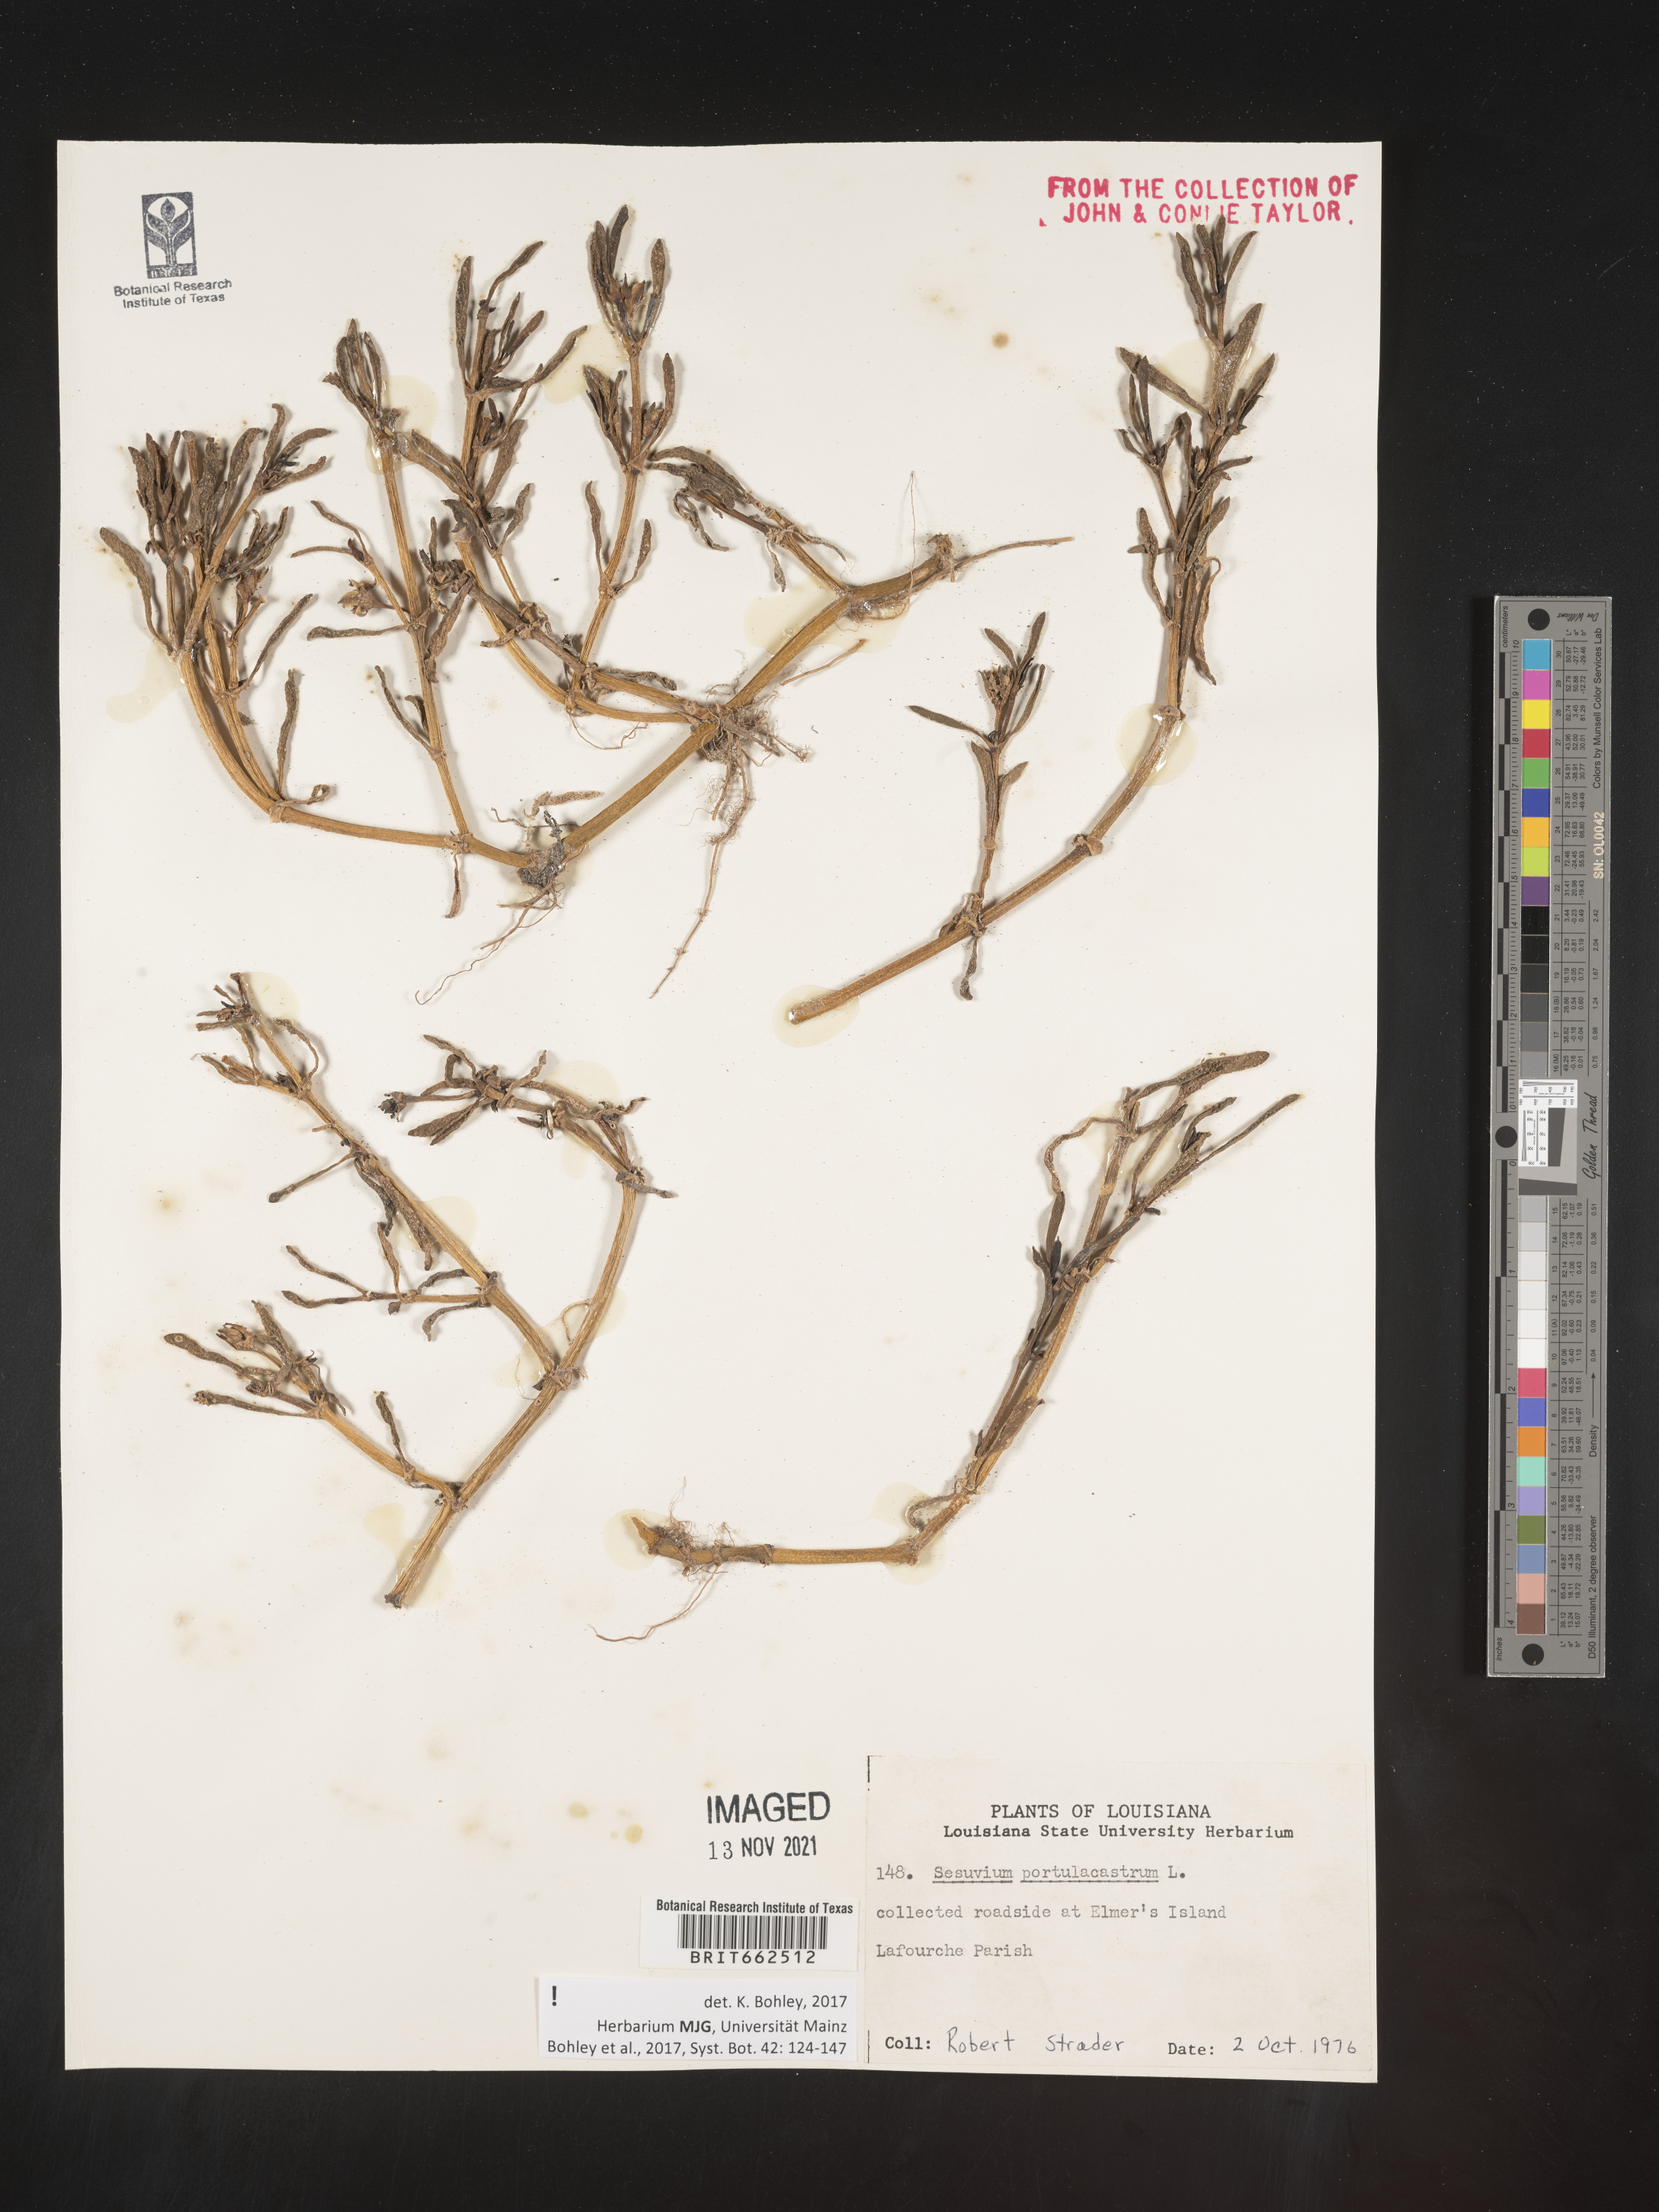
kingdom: Plantae
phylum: Tracheophyta
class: Magnoliopsida
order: Caryophyllales
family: Aizoaceae
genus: Sesuvium
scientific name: Sesuvium portulacastrum
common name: Sea-purslane
